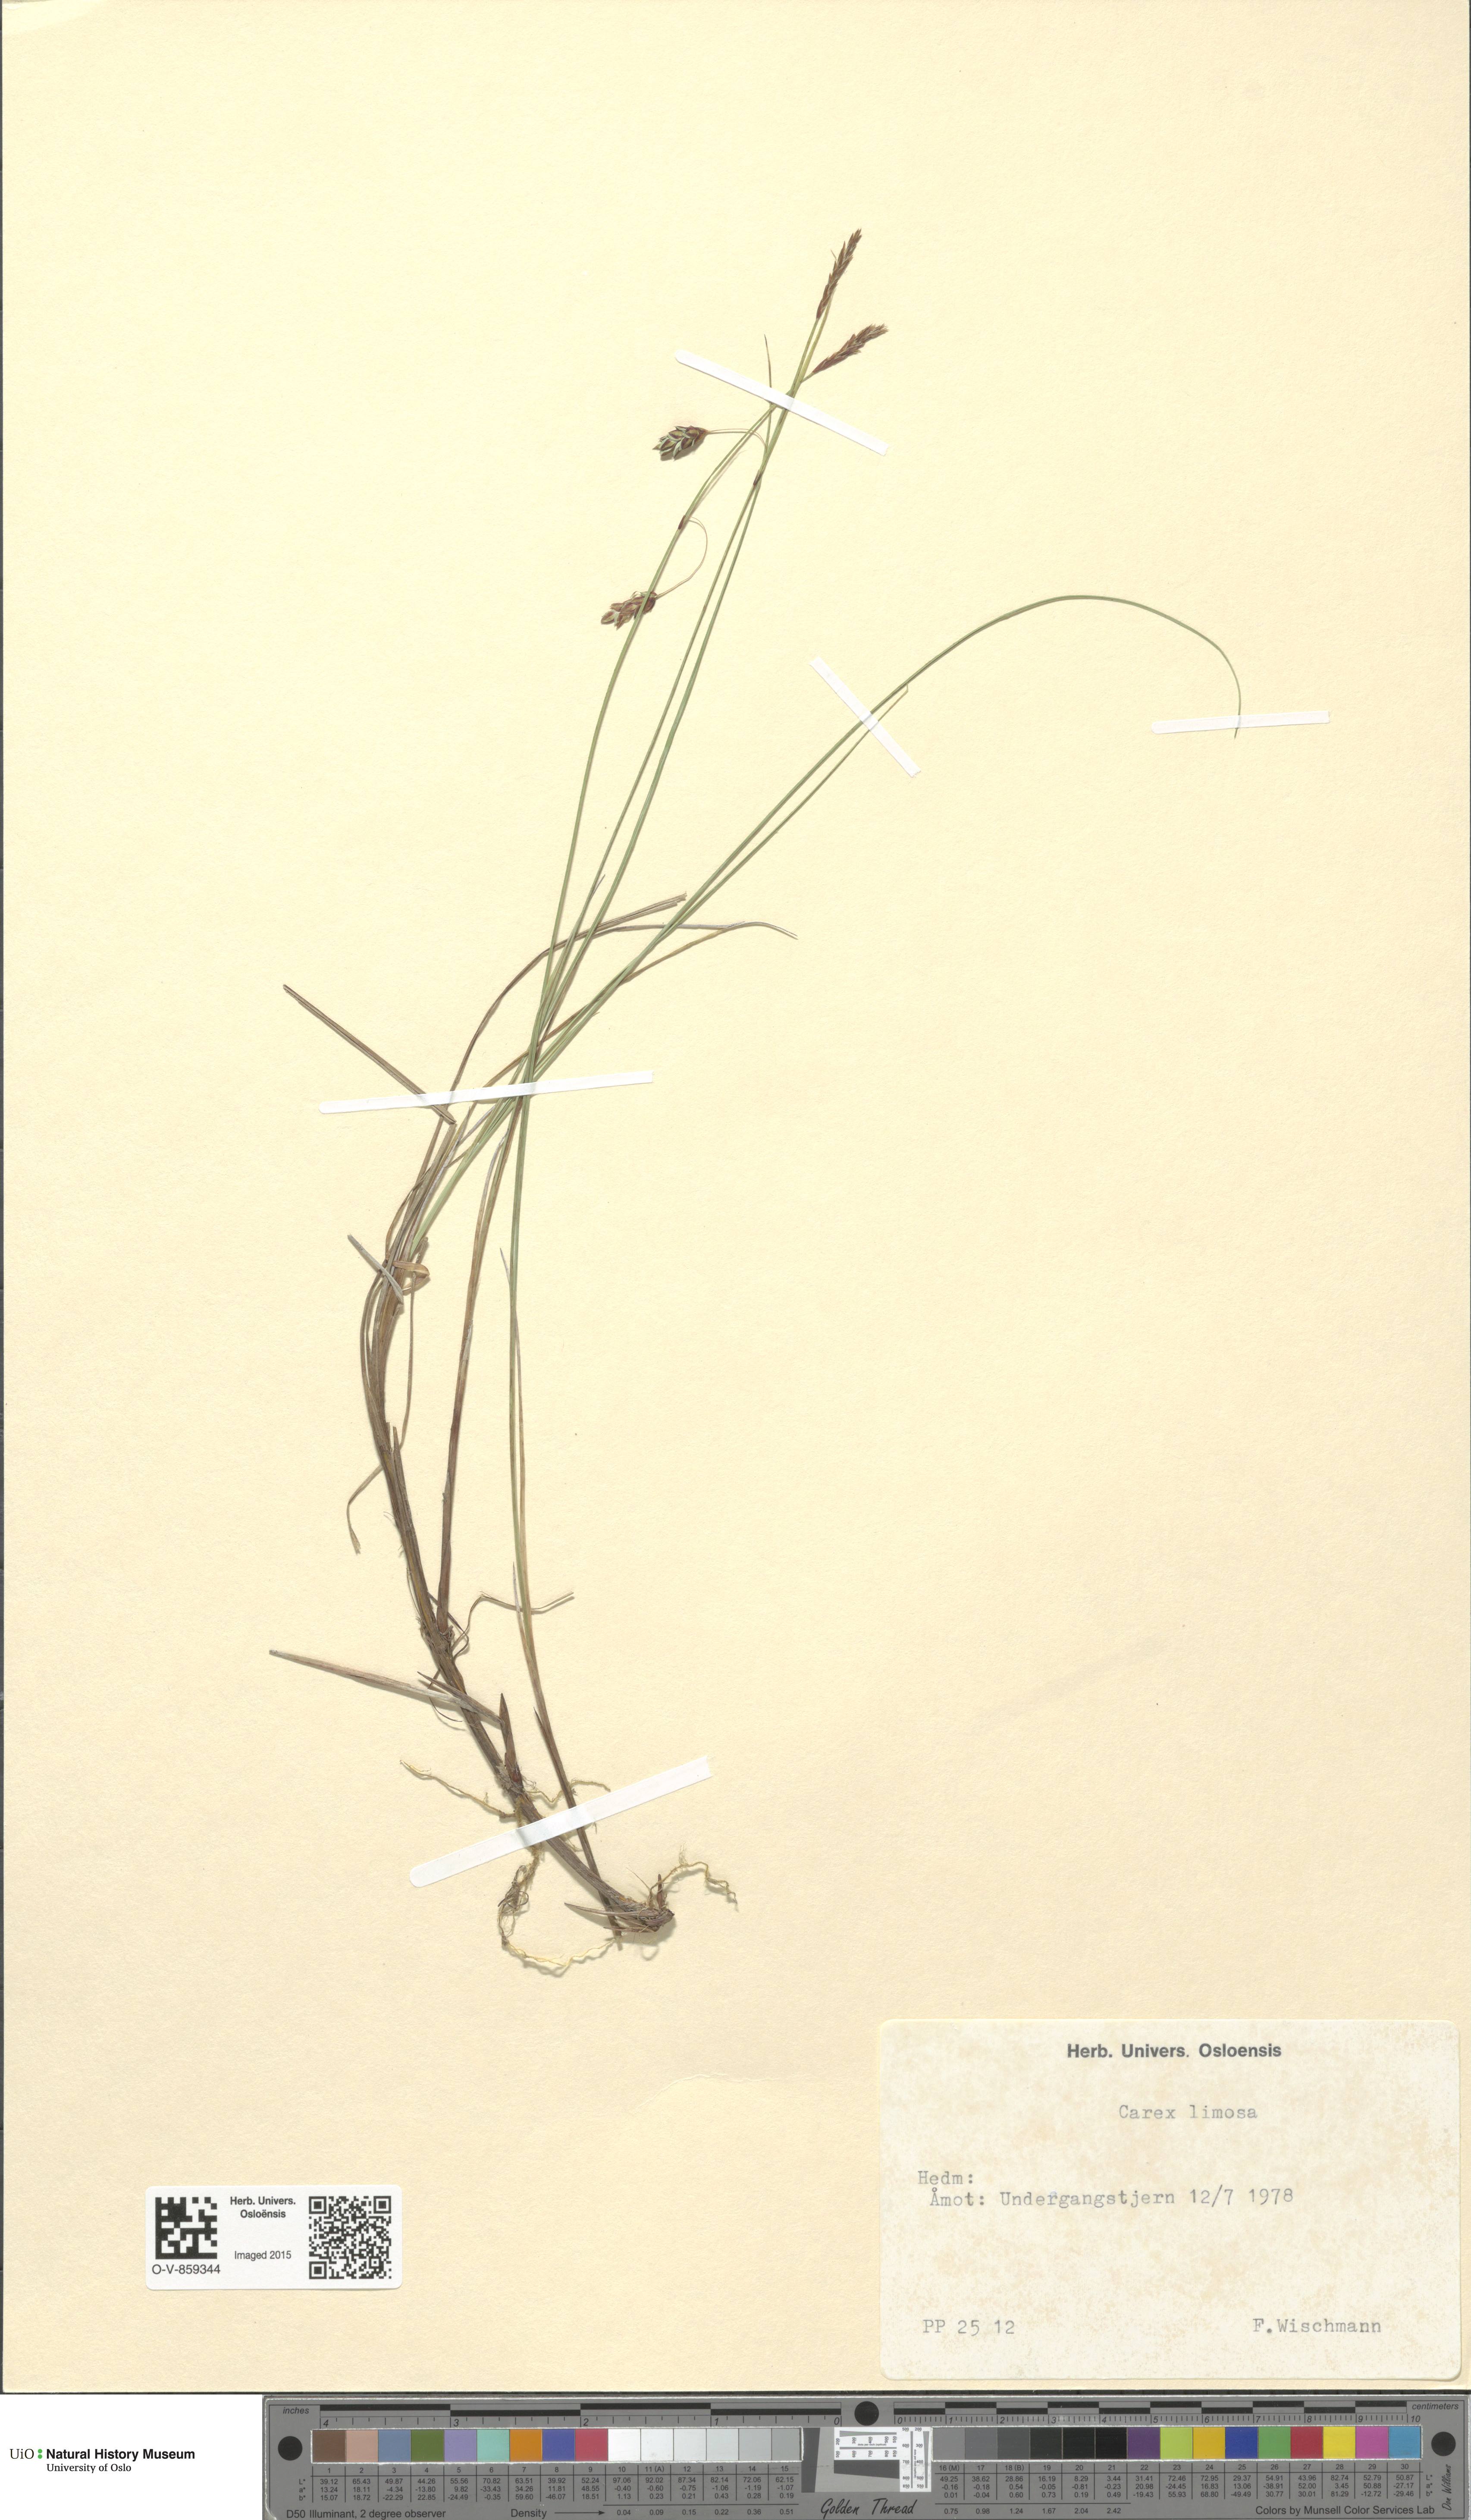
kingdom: Plantae
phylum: Tracheophyta
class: Liliopsida
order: Poales
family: Cyperaceae
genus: Carex
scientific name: Carex limosa
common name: Bog sedge
